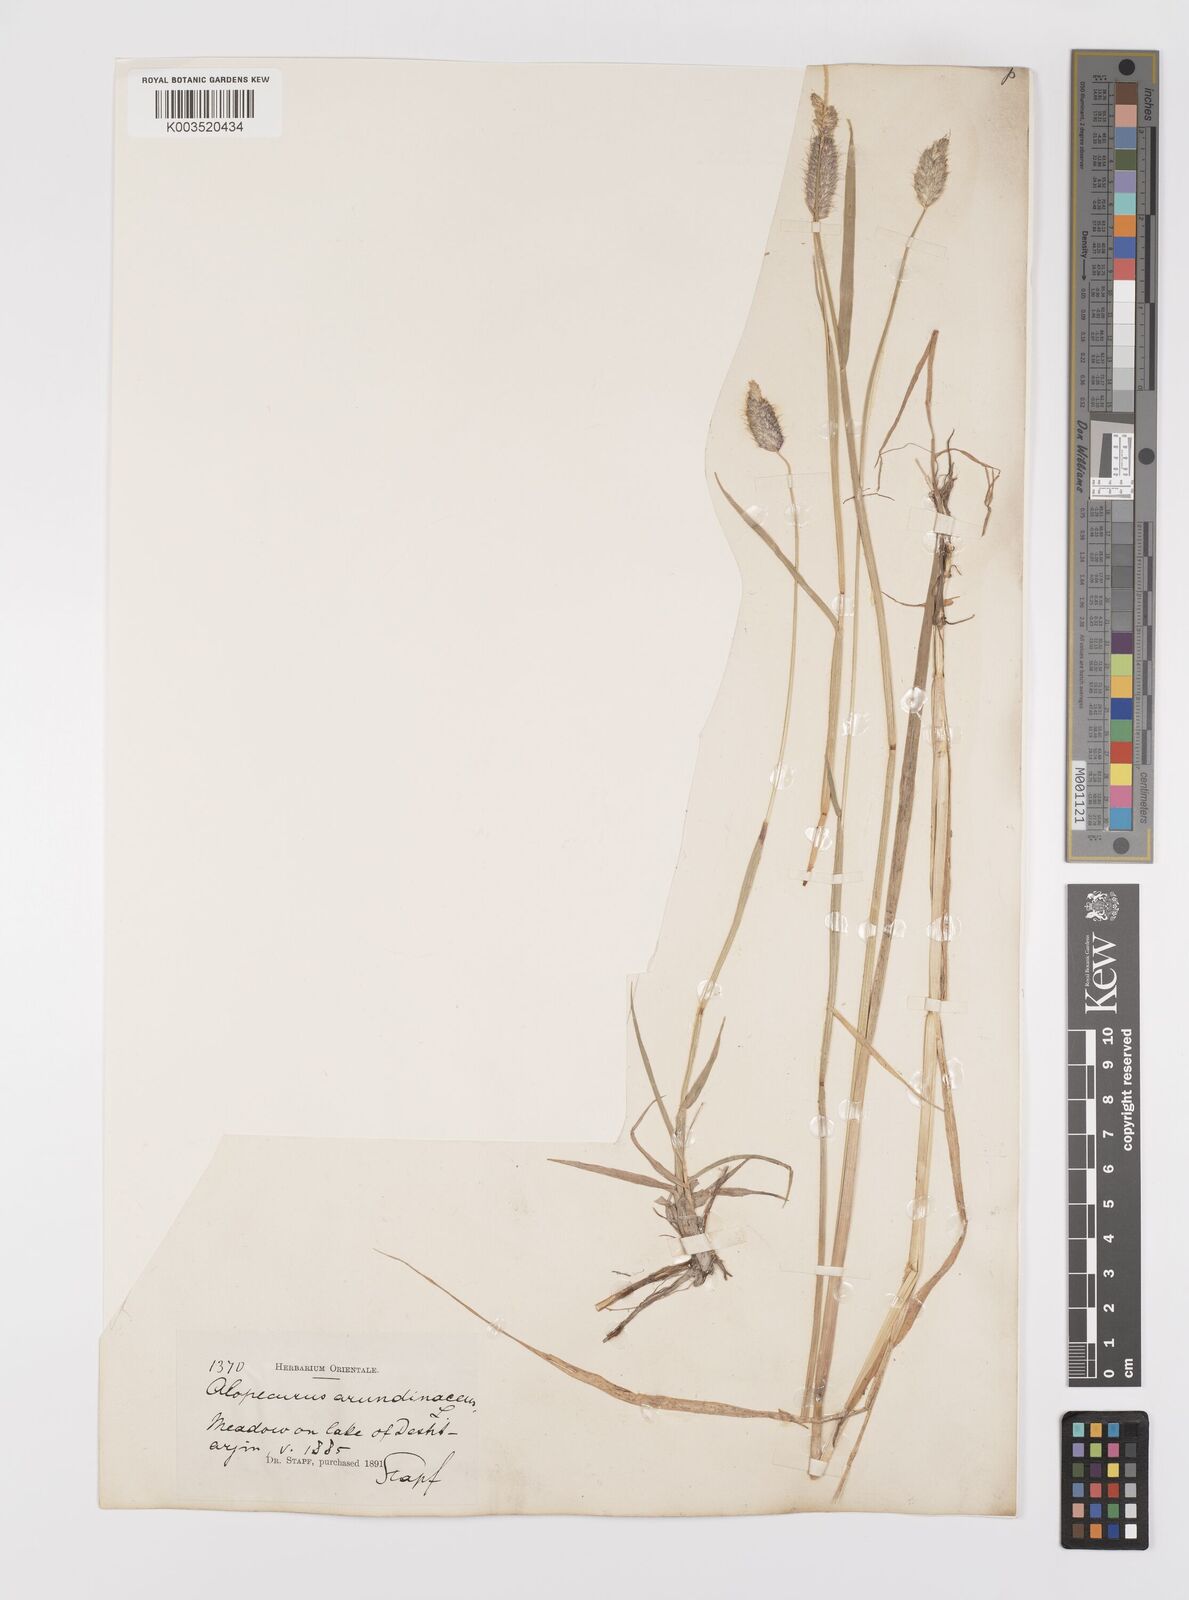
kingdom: Plantae
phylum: Tracheophyta
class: Liliopsida
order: Poales
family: Poaceae
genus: Alopecurus
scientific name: Alopecurus arundinaceus
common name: Creeping meadow foxtail
